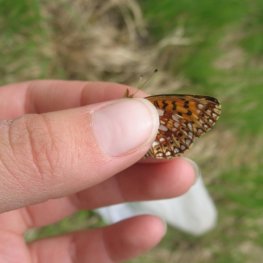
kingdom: Animalia
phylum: Arthropoda
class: Insecta
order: Lepidoptera
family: Nymphalidae
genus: Boloria
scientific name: Boloria selene
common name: Silver-bordered Fritillary
